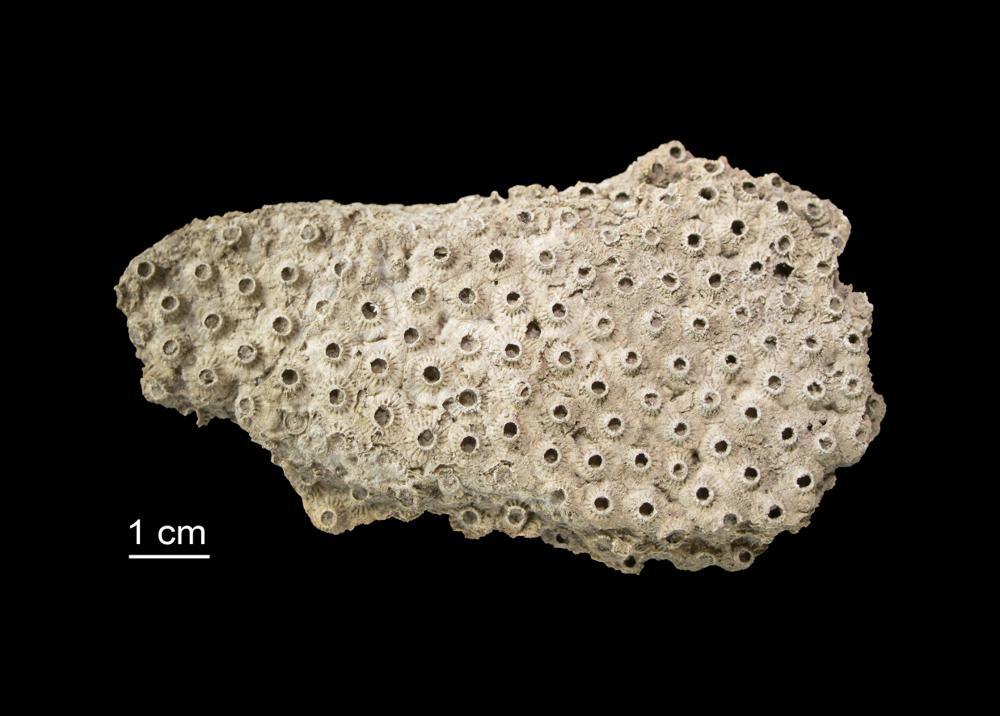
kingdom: Animalia
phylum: Cnidaria
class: Anthozoa
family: Syringophyllidae
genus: Sarcinula
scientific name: Sarcinula organum
